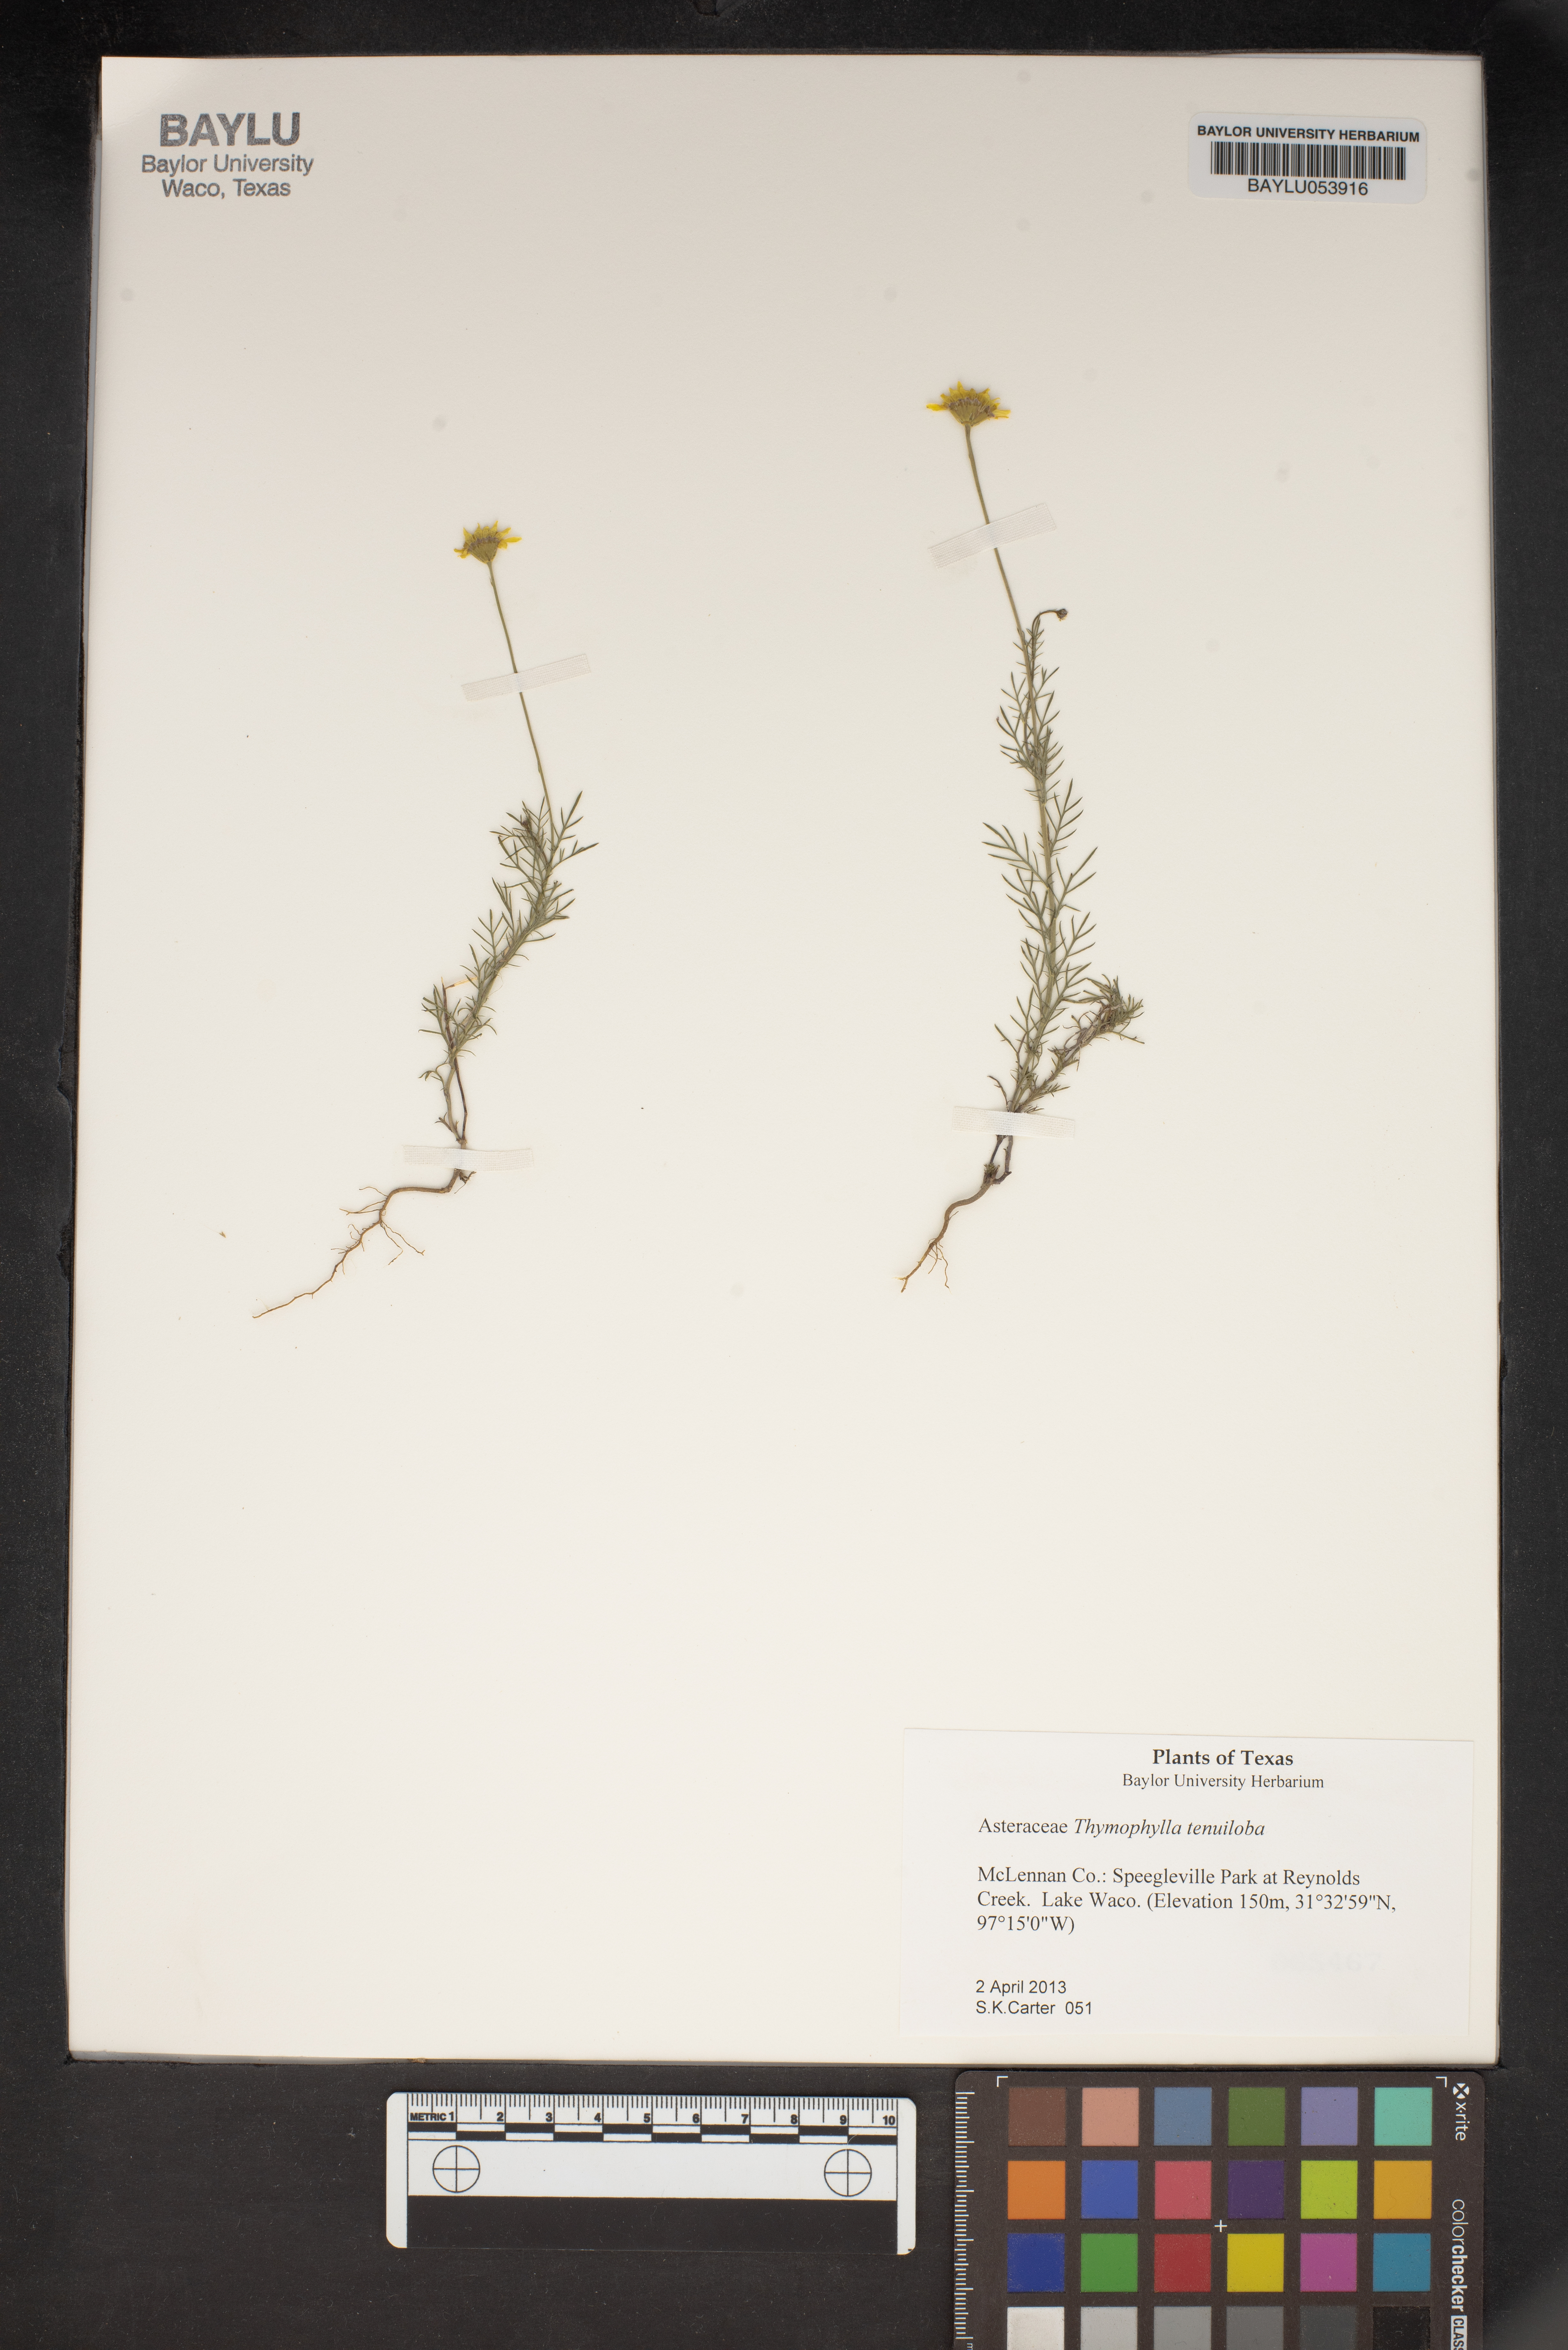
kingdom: Plantae
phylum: Tracheophyta
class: Magnoliopsida
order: Asterales
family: Asteraceae
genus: Thymophylla
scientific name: Thymophylla tenuiloba
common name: Dahlberg's daisy
